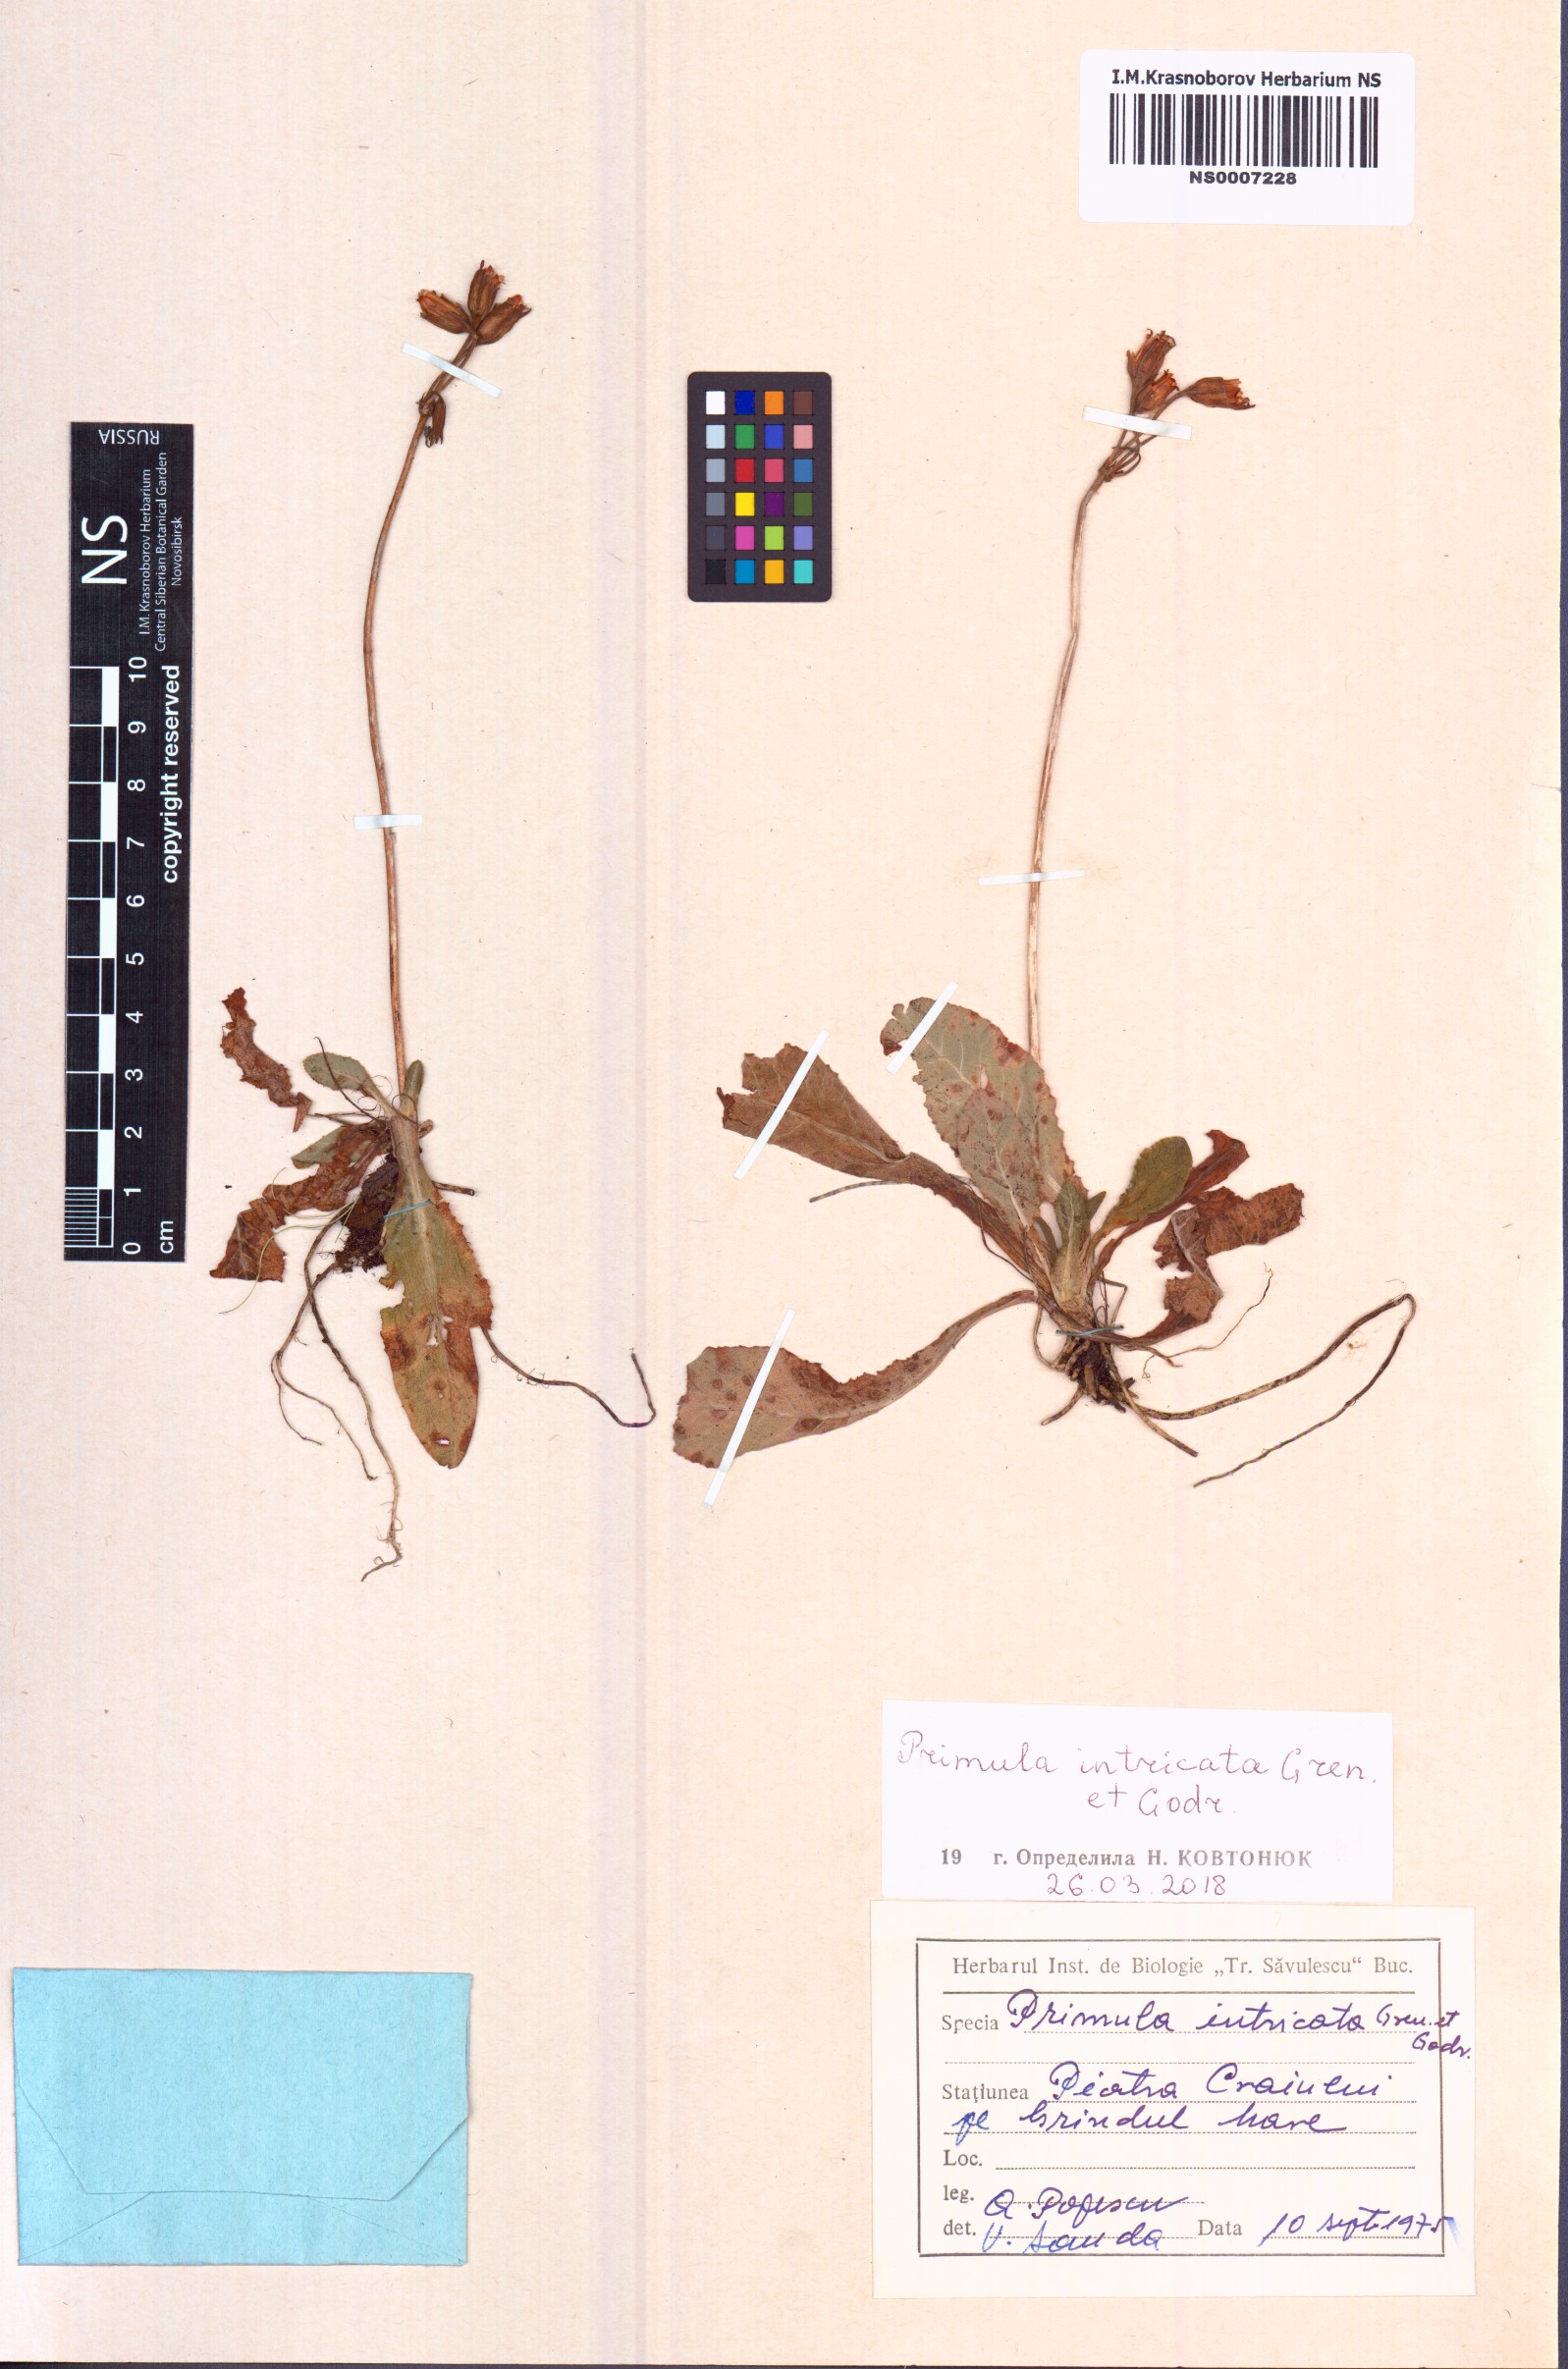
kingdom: Plantae
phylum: Tracheophyta
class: Magnoliopsida
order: Ericales
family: Primulaceae
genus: Primula
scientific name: Primula intricata
